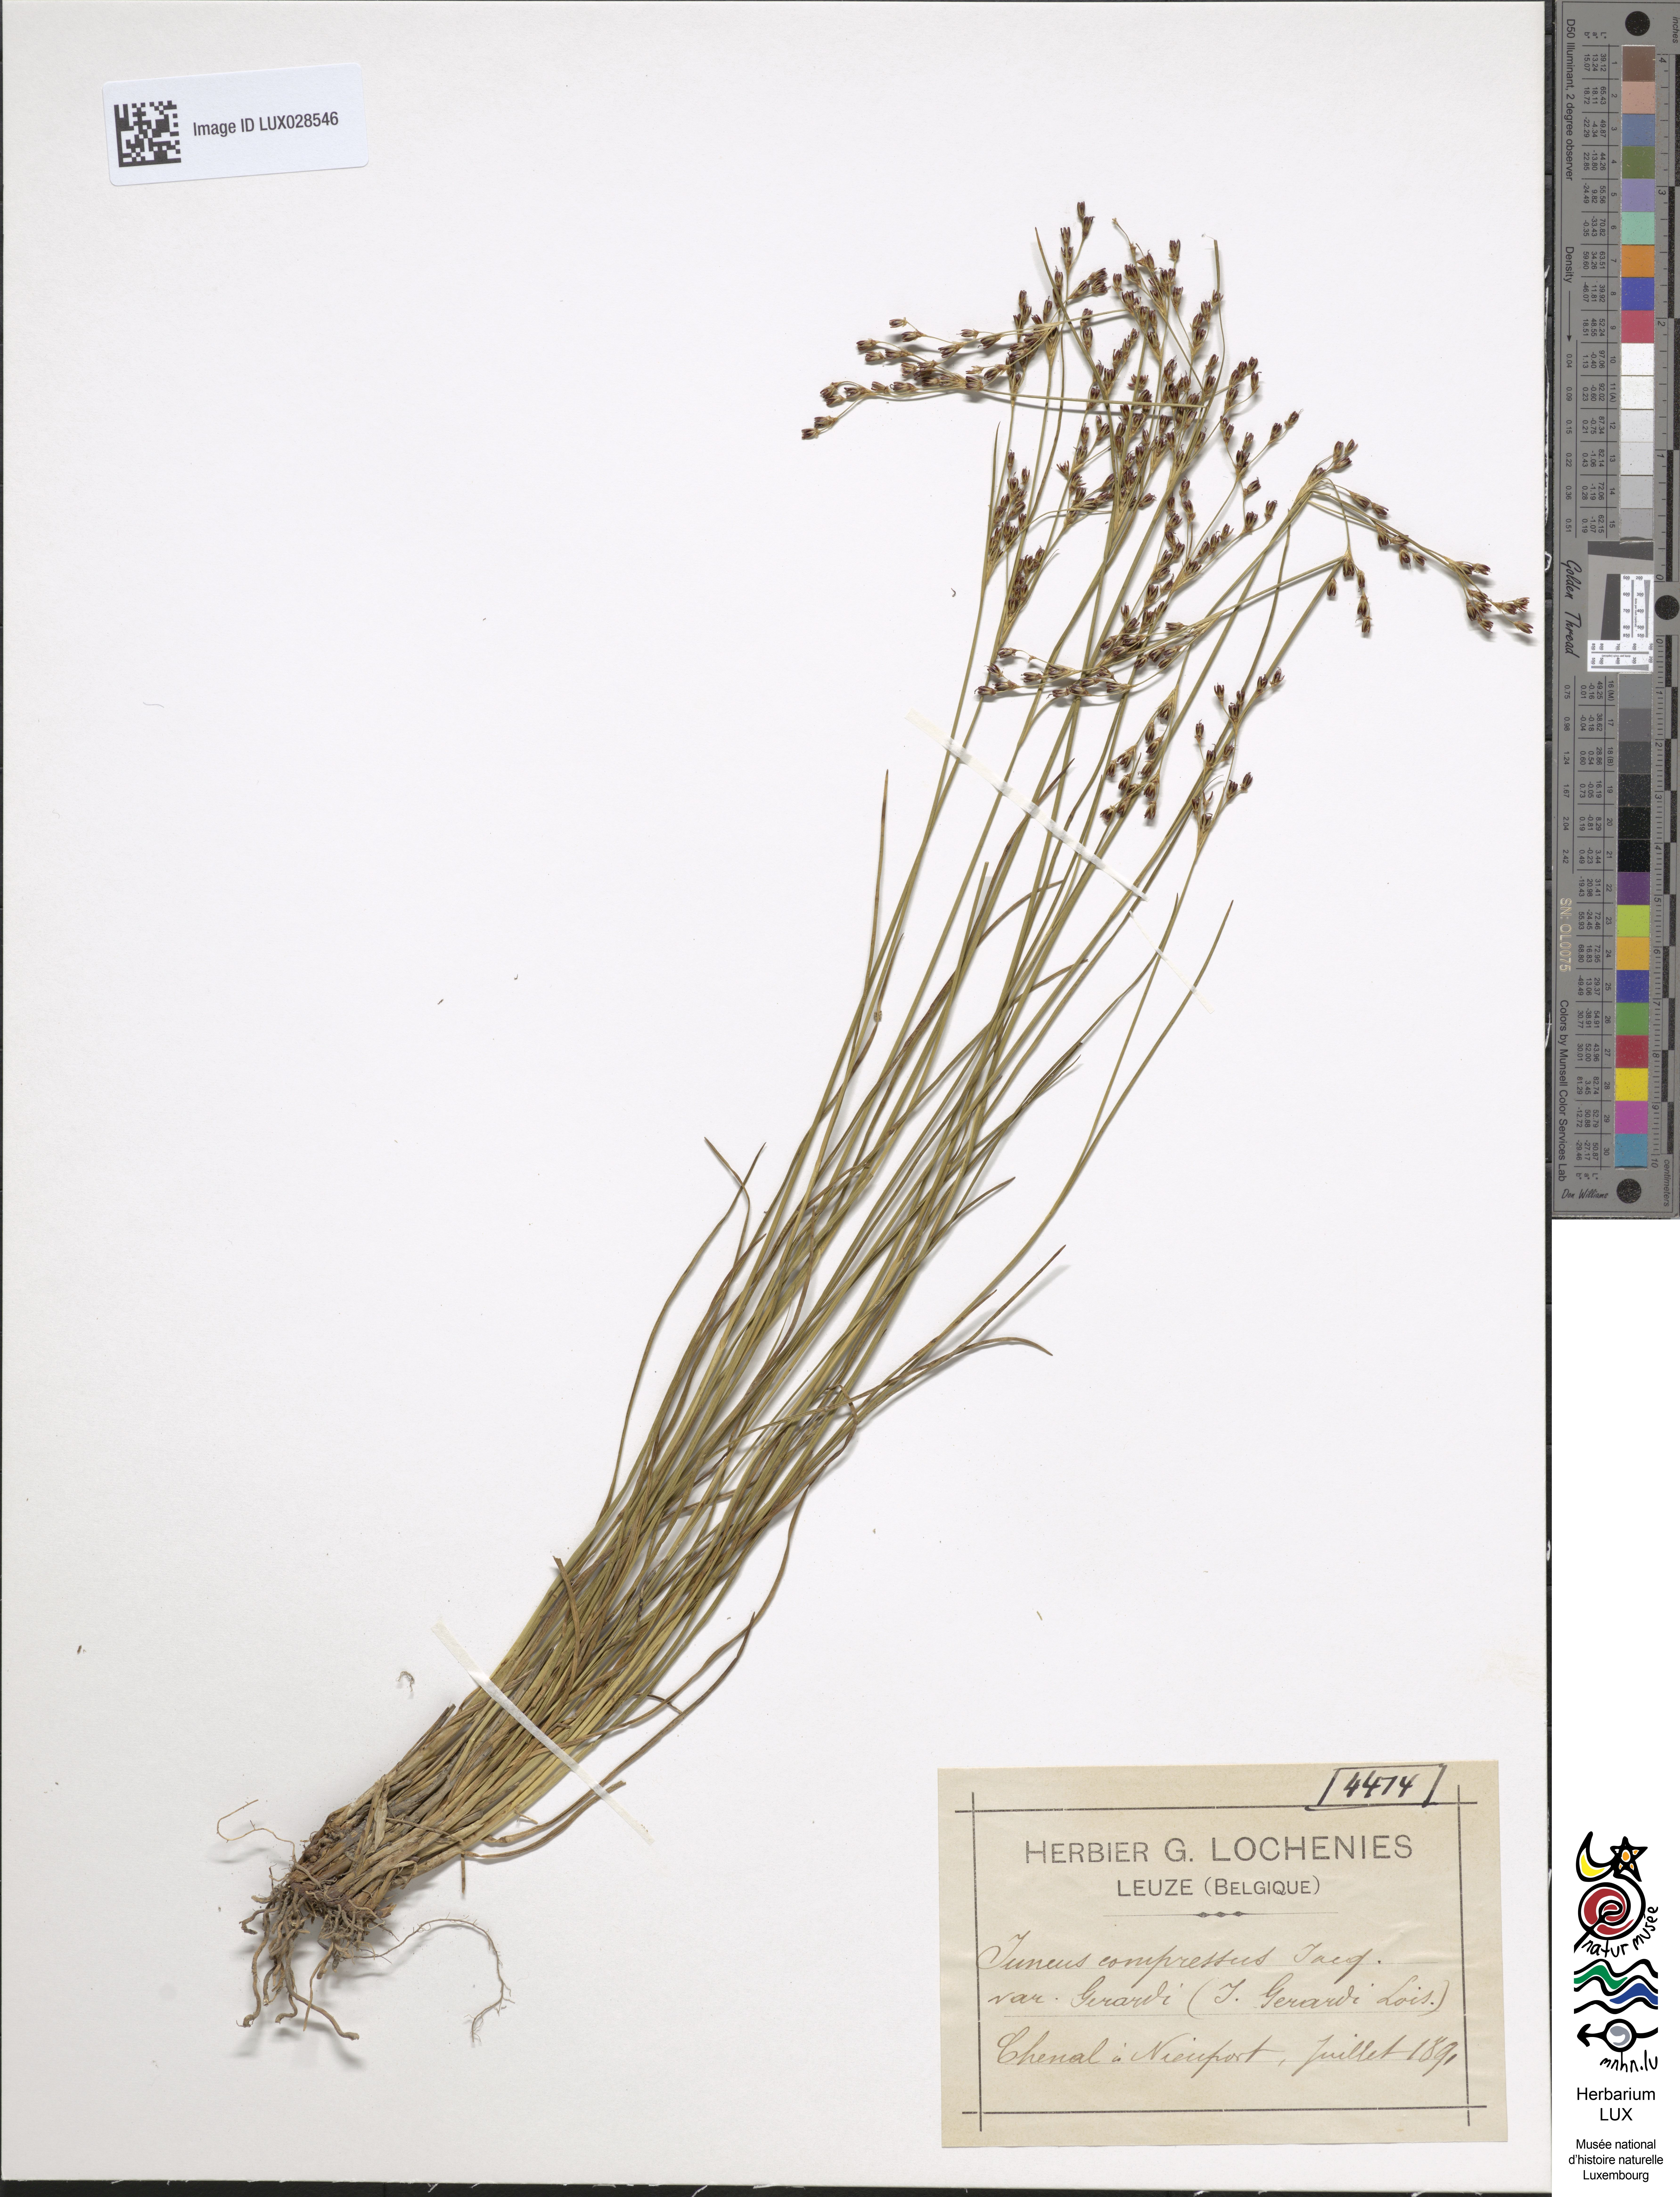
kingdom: Plantae
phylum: Tracheophyta
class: Liliopsida
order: Poales
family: Juncaceae
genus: Juncus
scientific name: Juncus gerardi
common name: Saltmarsh rush
